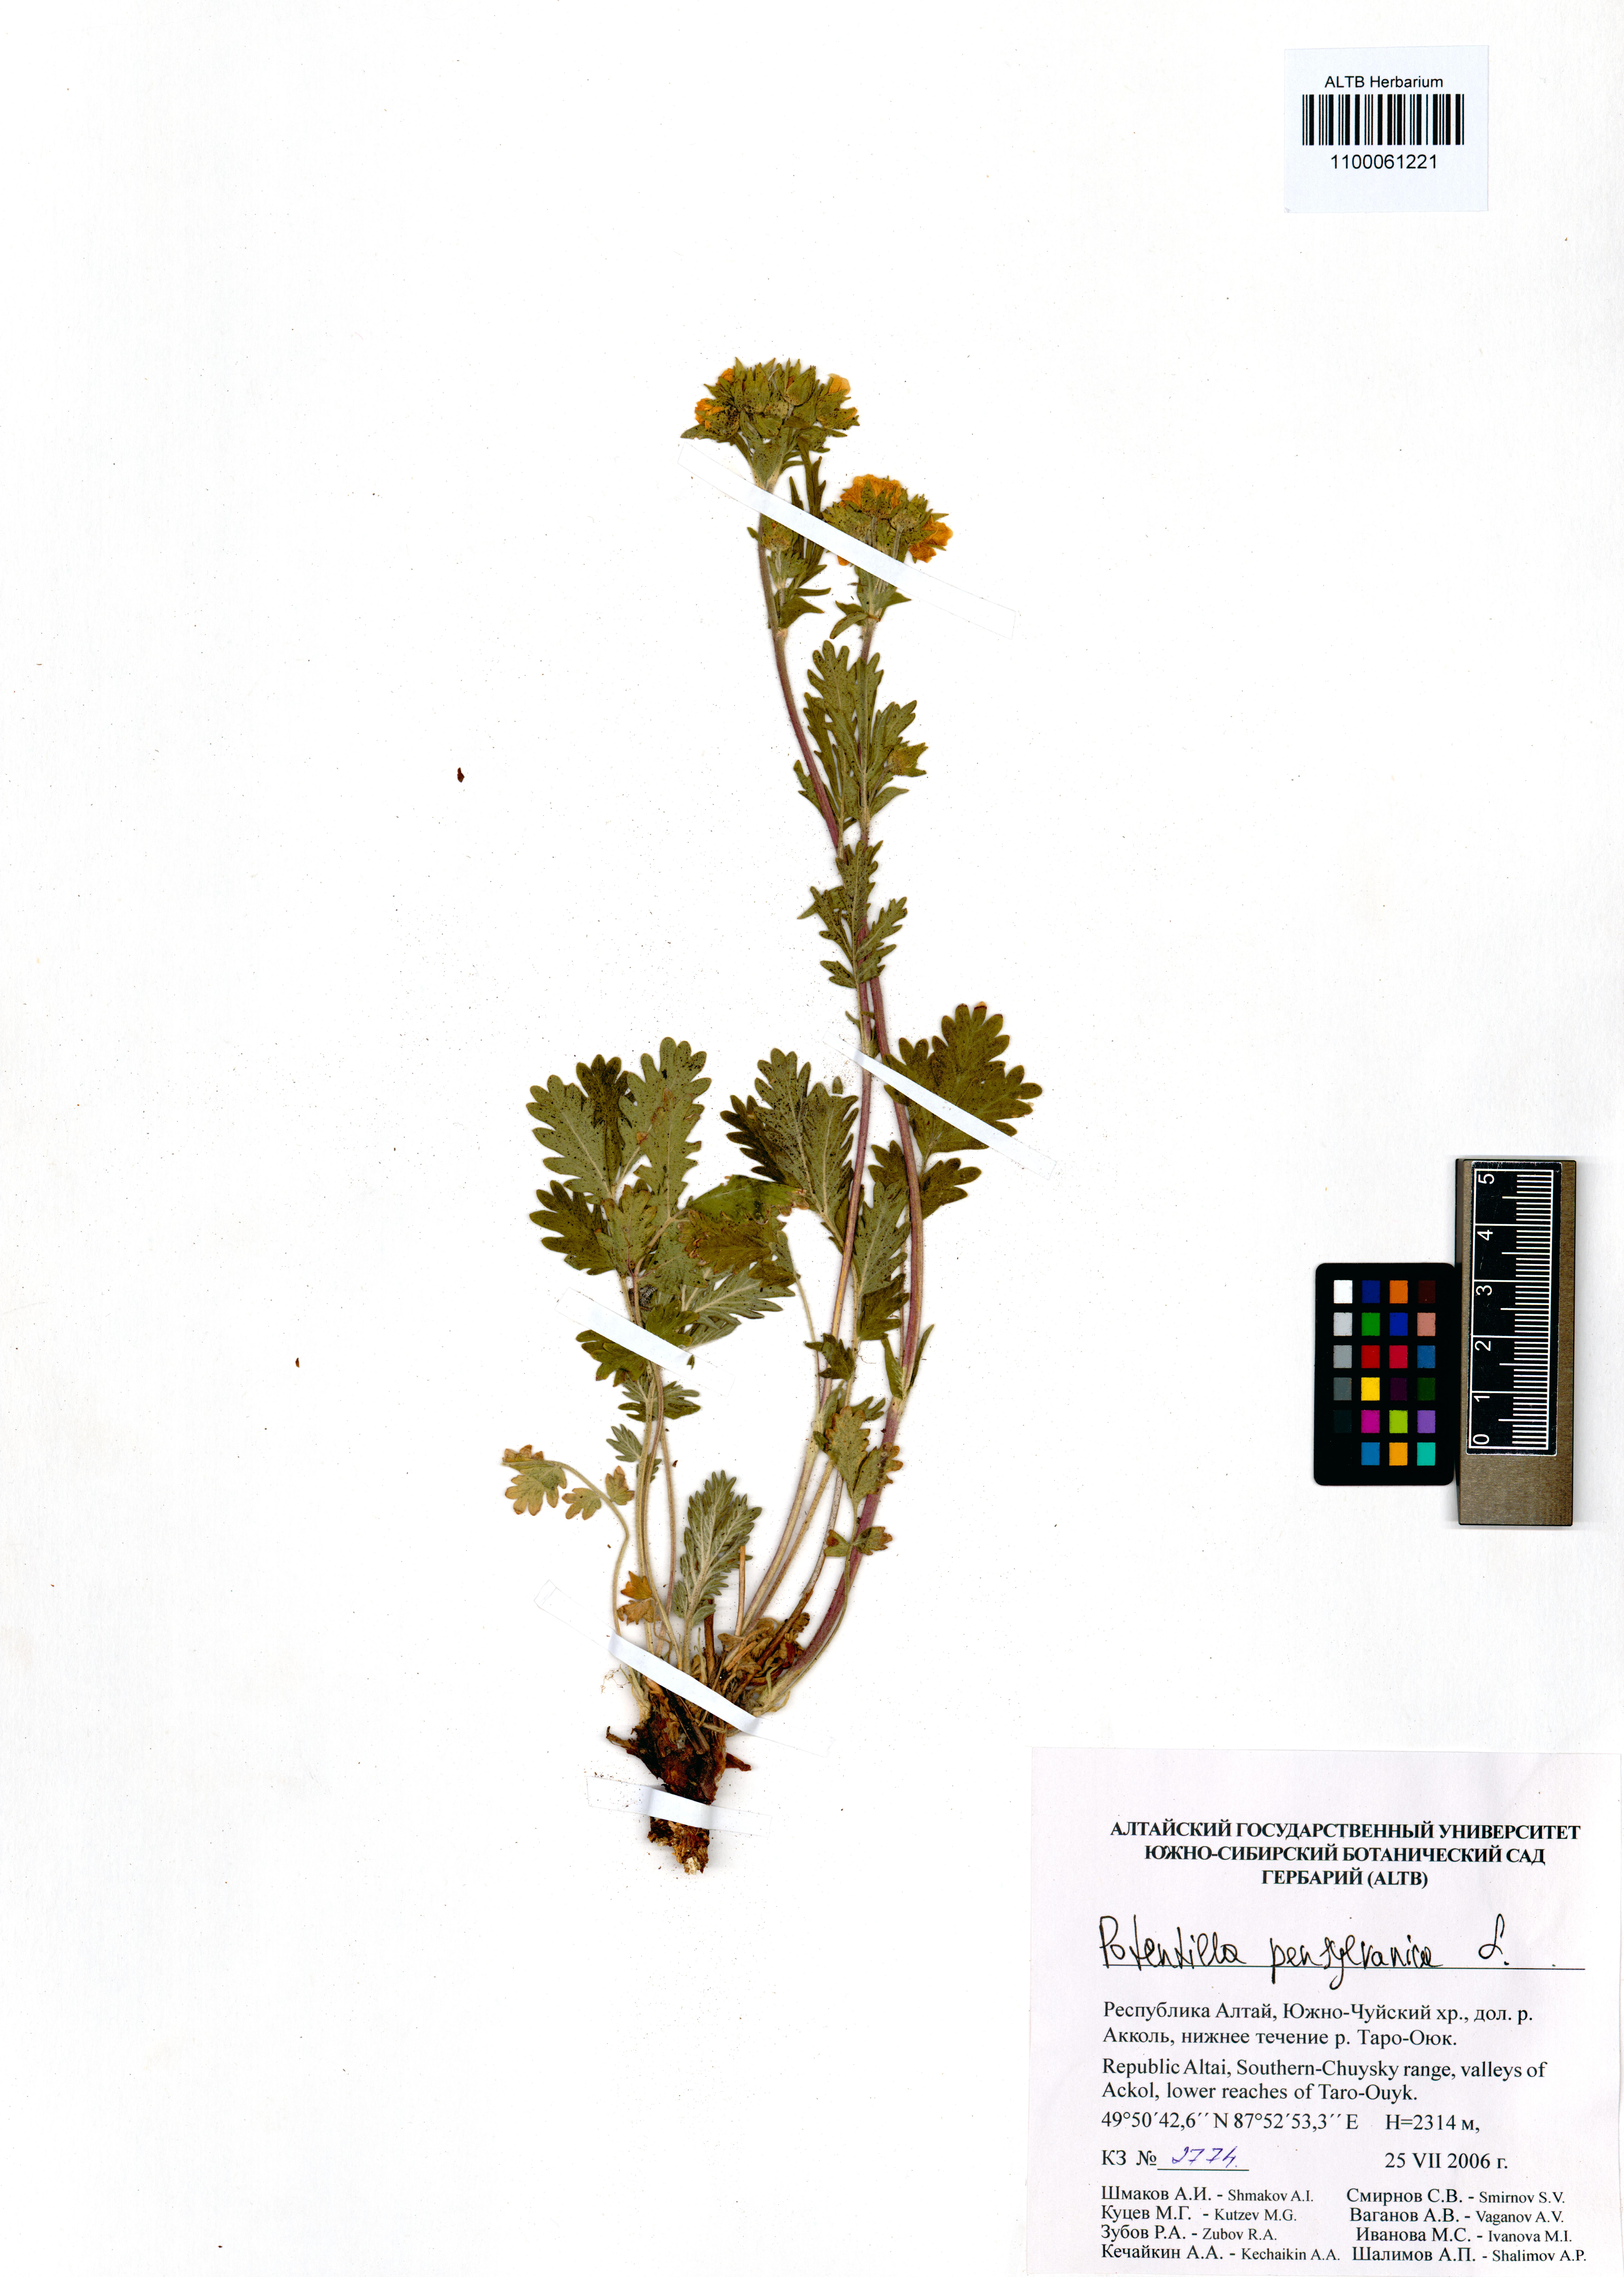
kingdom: Plantae
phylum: Tracheophyta
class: Magnoliopsida
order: Rosales
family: Rosaceae
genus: Potentilla
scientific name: Potentilla pensylvanica
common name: Pennsylvania cinquefoil
